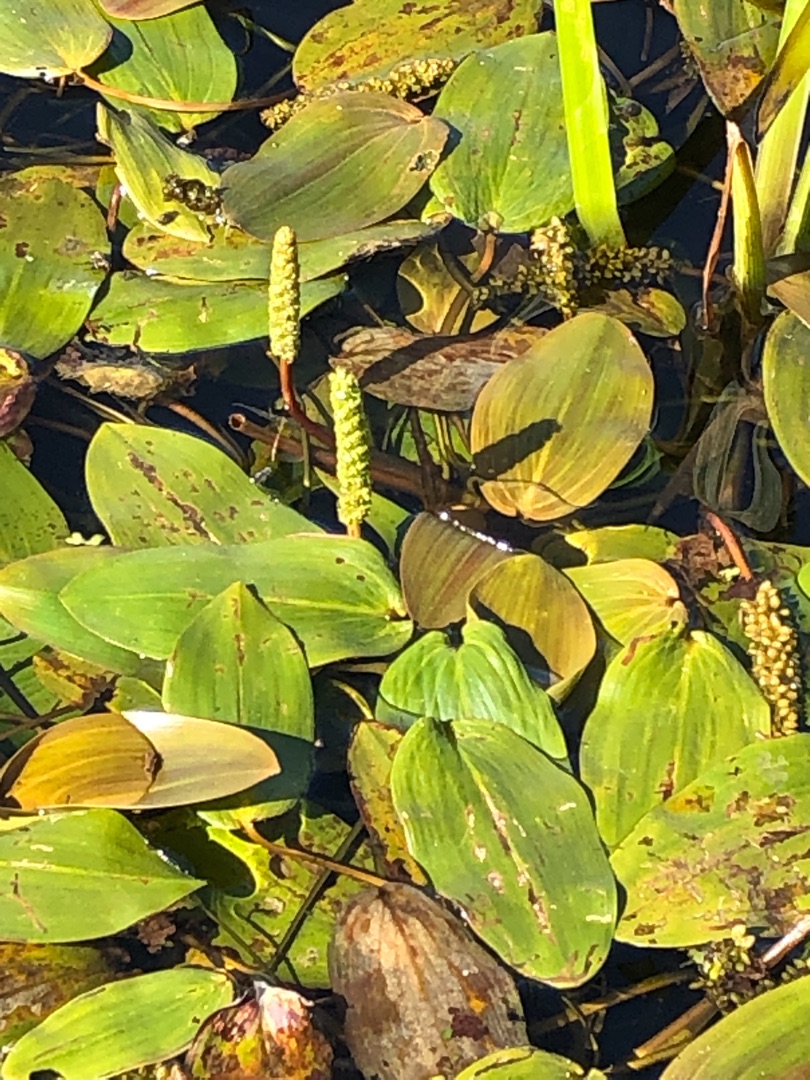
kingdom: Plantae
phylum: Tracheophyta
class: Liliopsida
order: Alismatales
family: Potamogetonaceae
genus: Potamogeton
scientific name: Potamogeton natans
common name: Svømmende vandaks
